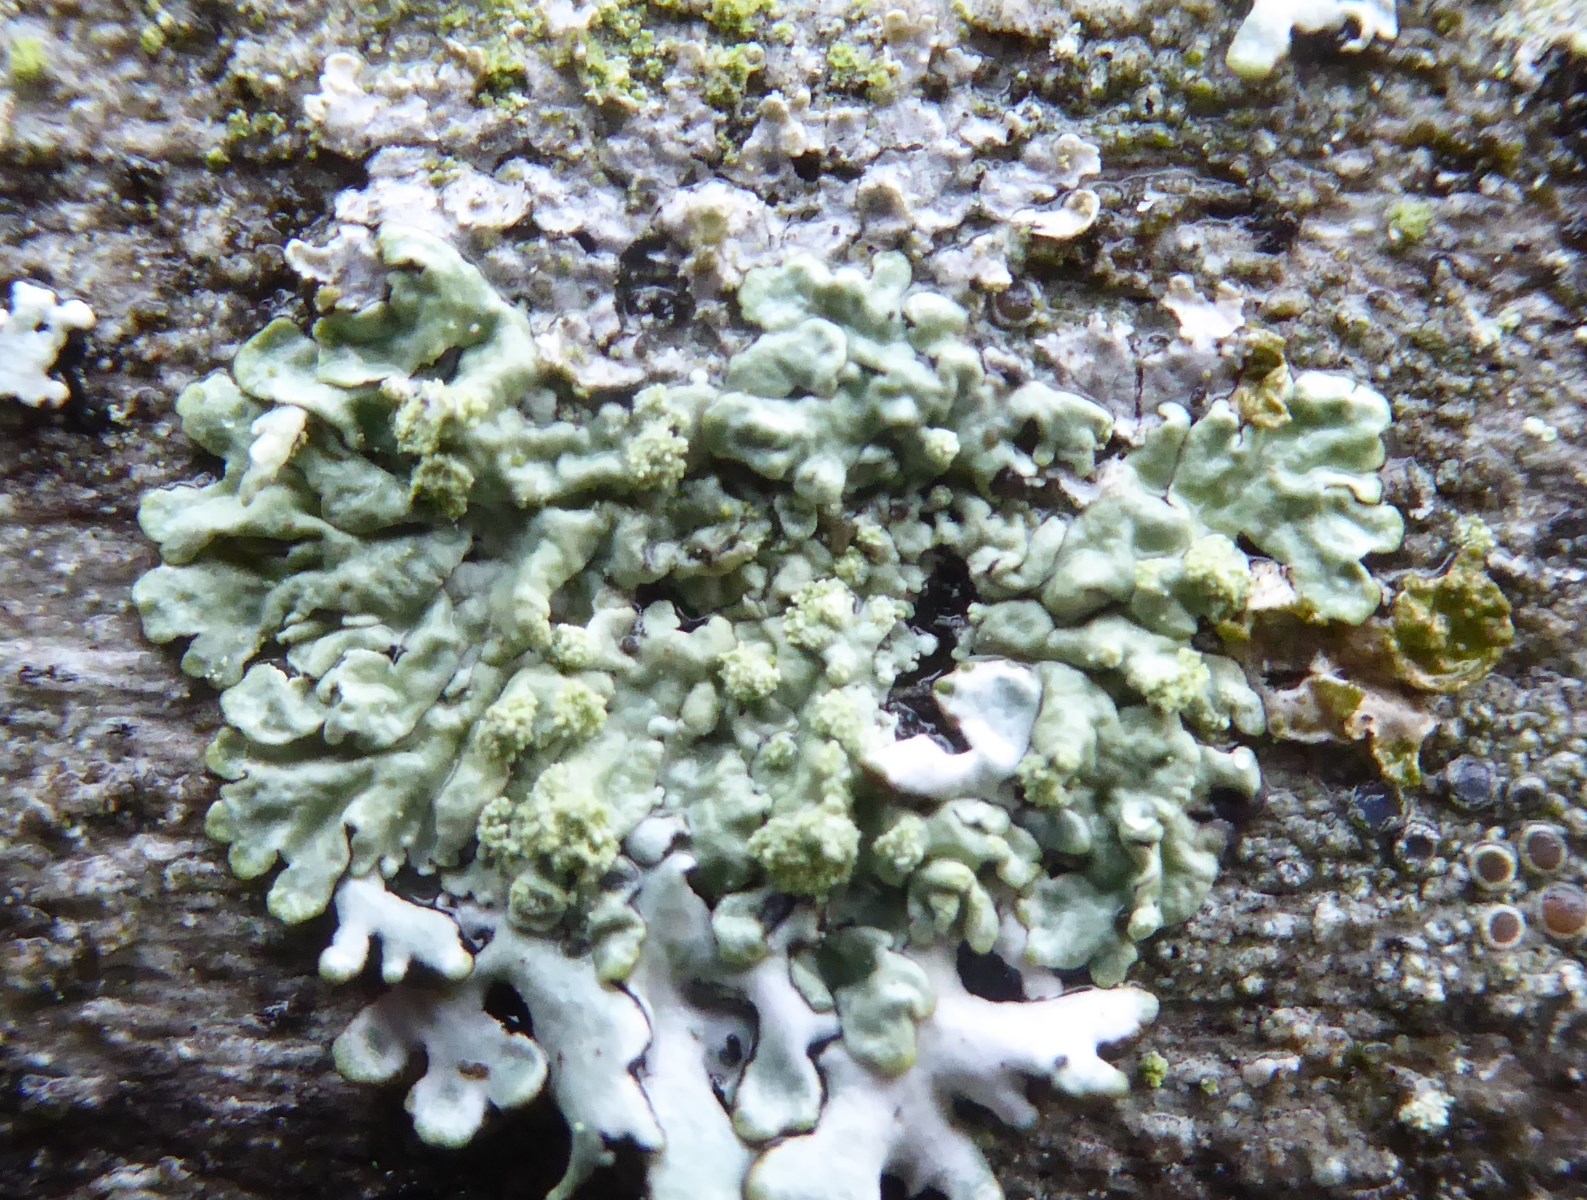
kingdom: Fungi
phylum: Ascomycota
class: Lecanoromycetes
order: Lecanorales
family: Parmeliaceae
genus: Parmeliopsis
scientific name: Parmeliopsis ambigua
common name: gul stolpelav
